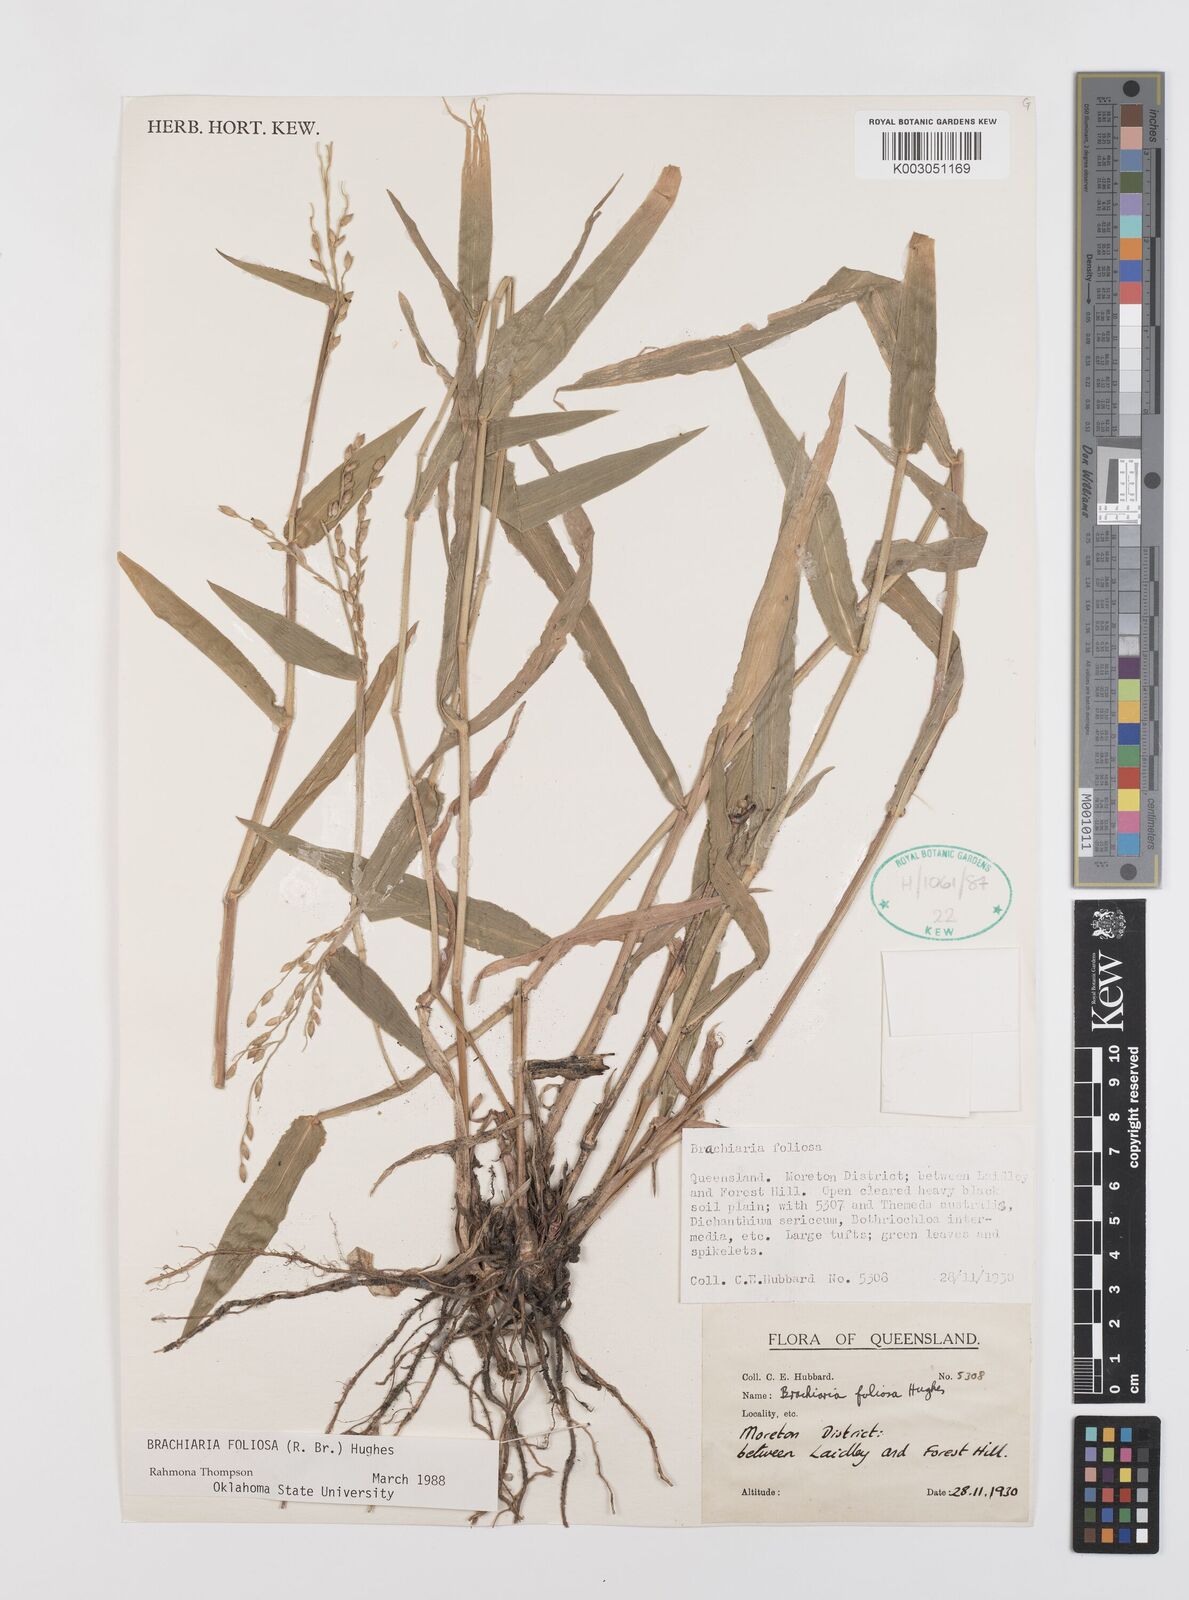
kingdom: Plantae
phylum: Tracheophyta
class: Liliopsida
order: Poales
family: Poaceae
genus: Urochloa
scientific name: Urochloa foliosa
